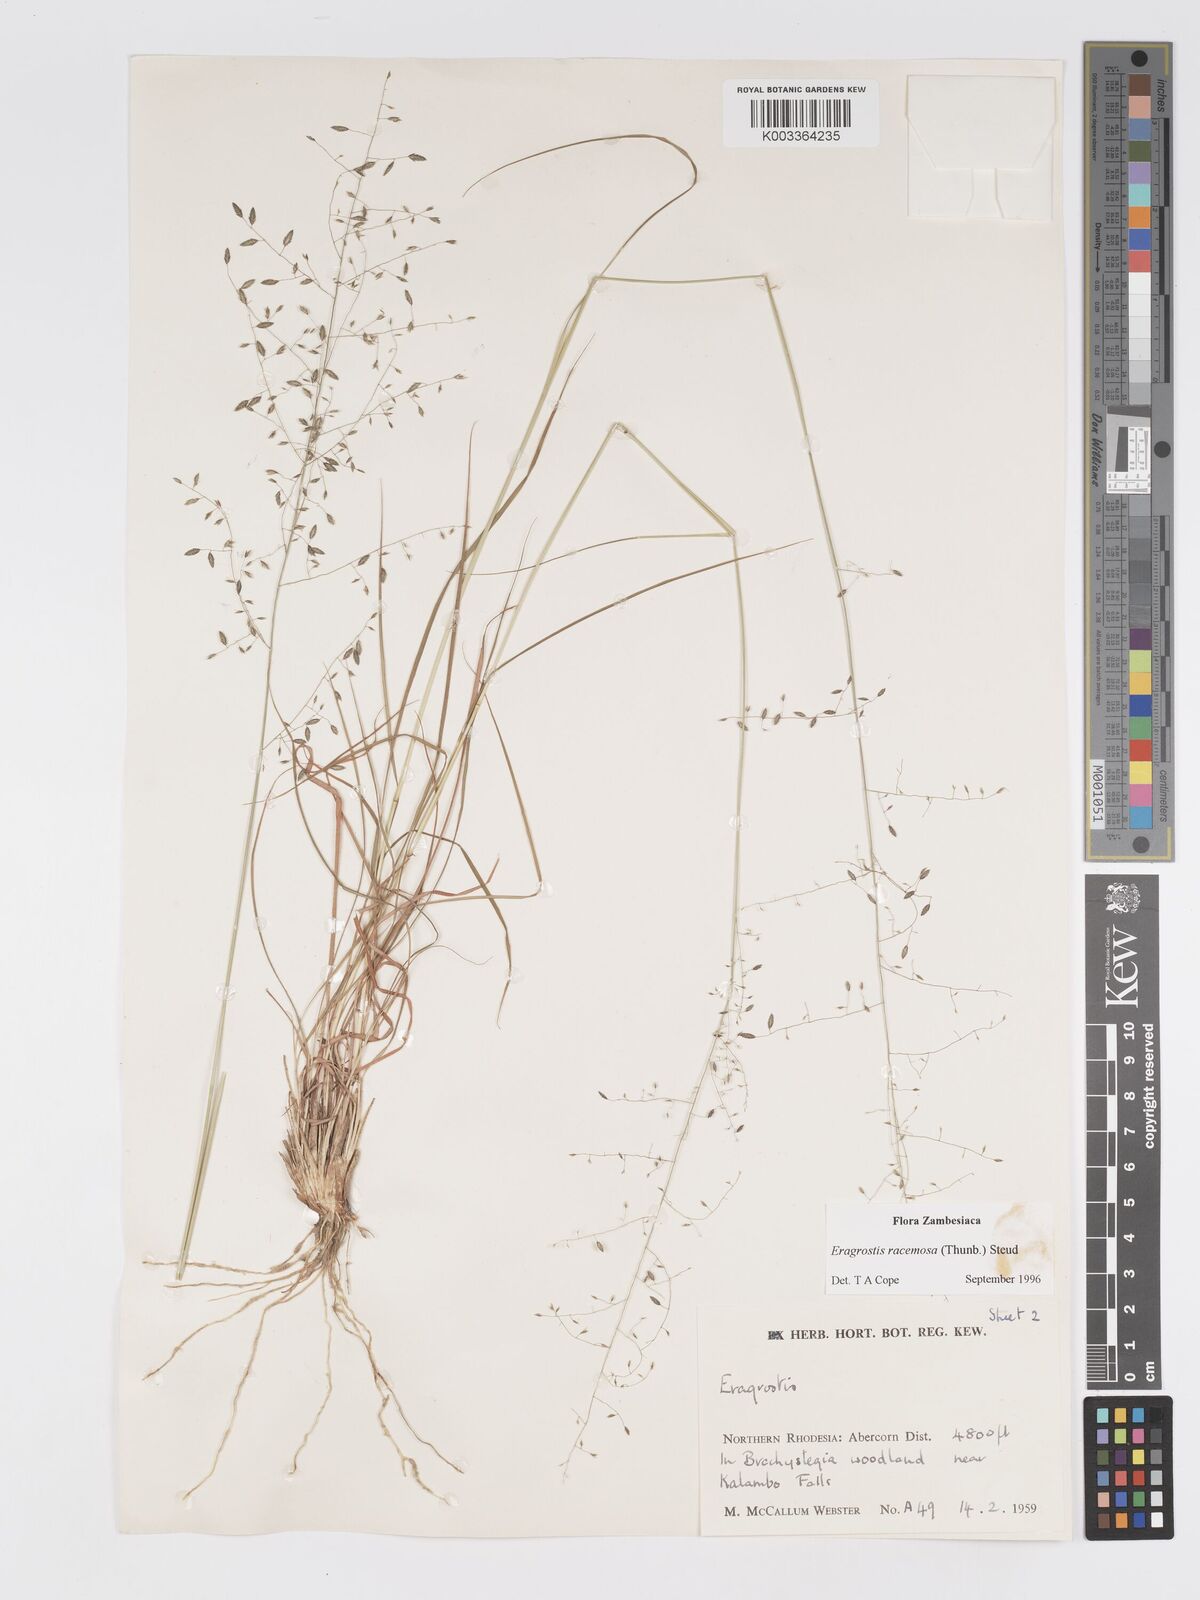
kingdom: Plantae
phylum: Tracheophyta
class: Liliopsida
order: Poales
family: Poaceae
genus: Eragrostis
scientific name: Eragrostis racemosa
